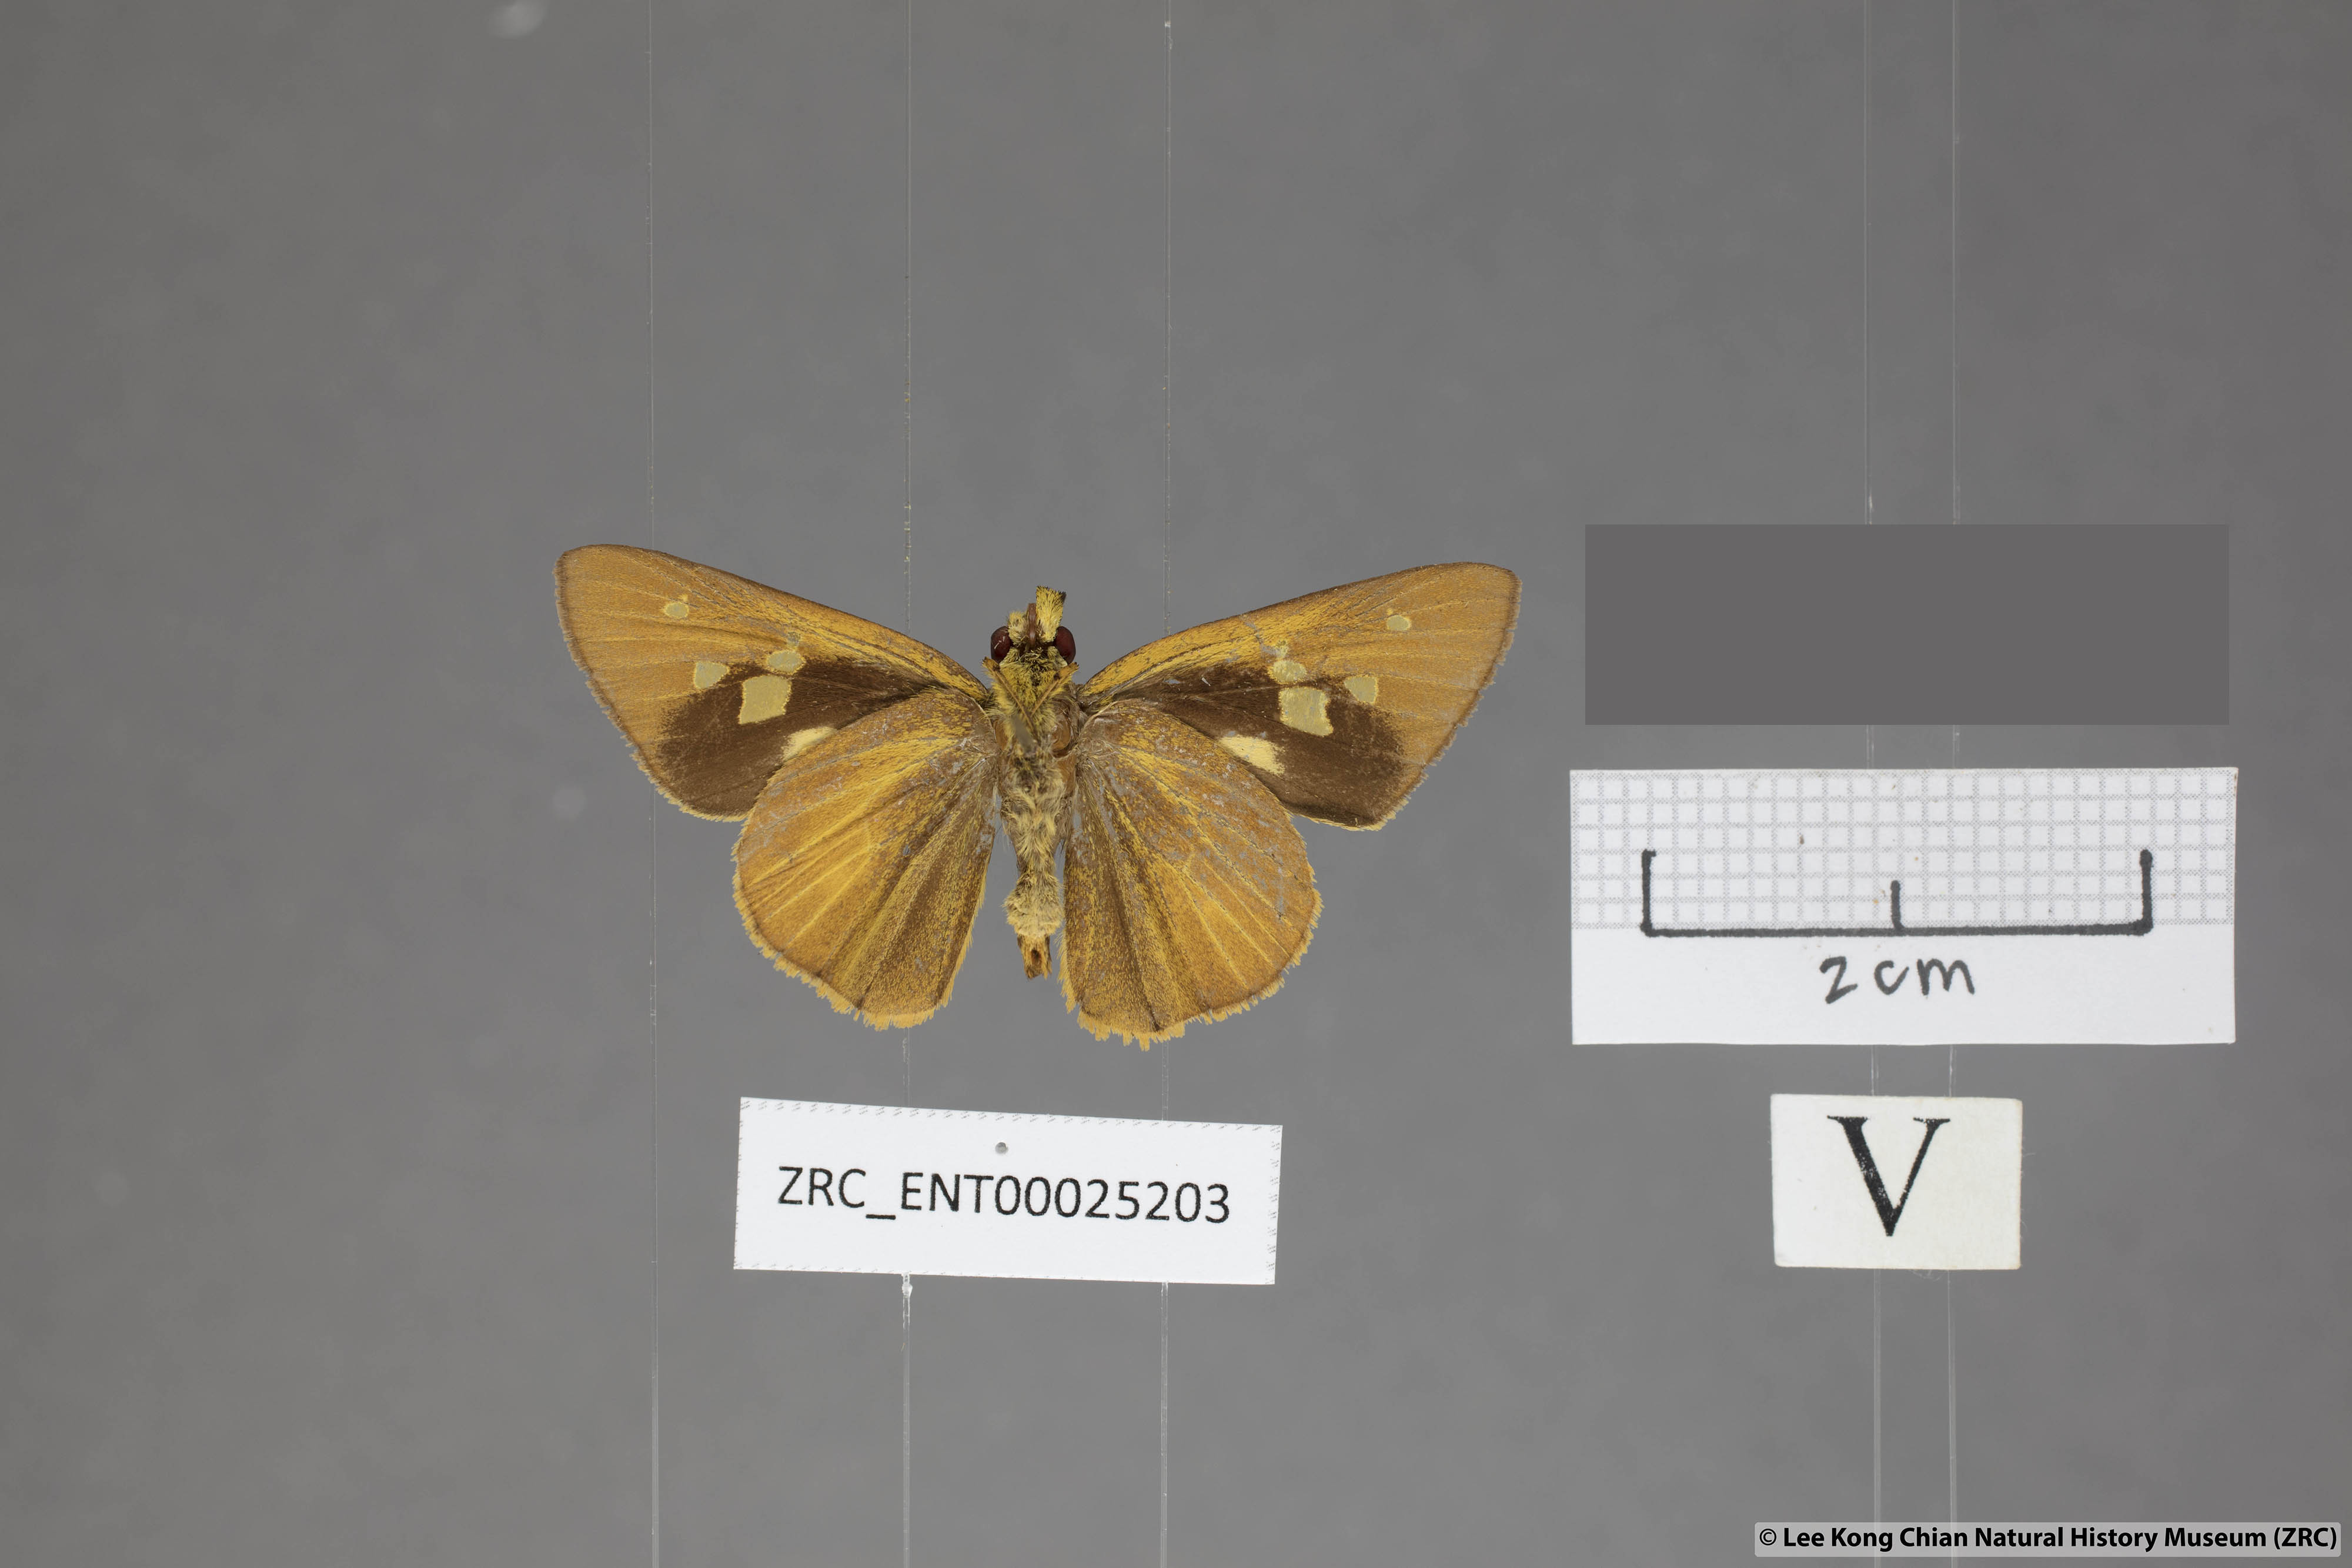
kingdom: Animalia
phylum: Arthropoda
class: Insecta
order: Lepidoptera
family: Hesperiidae
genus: Xanthoneura
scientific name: Xanthoneura corissa
